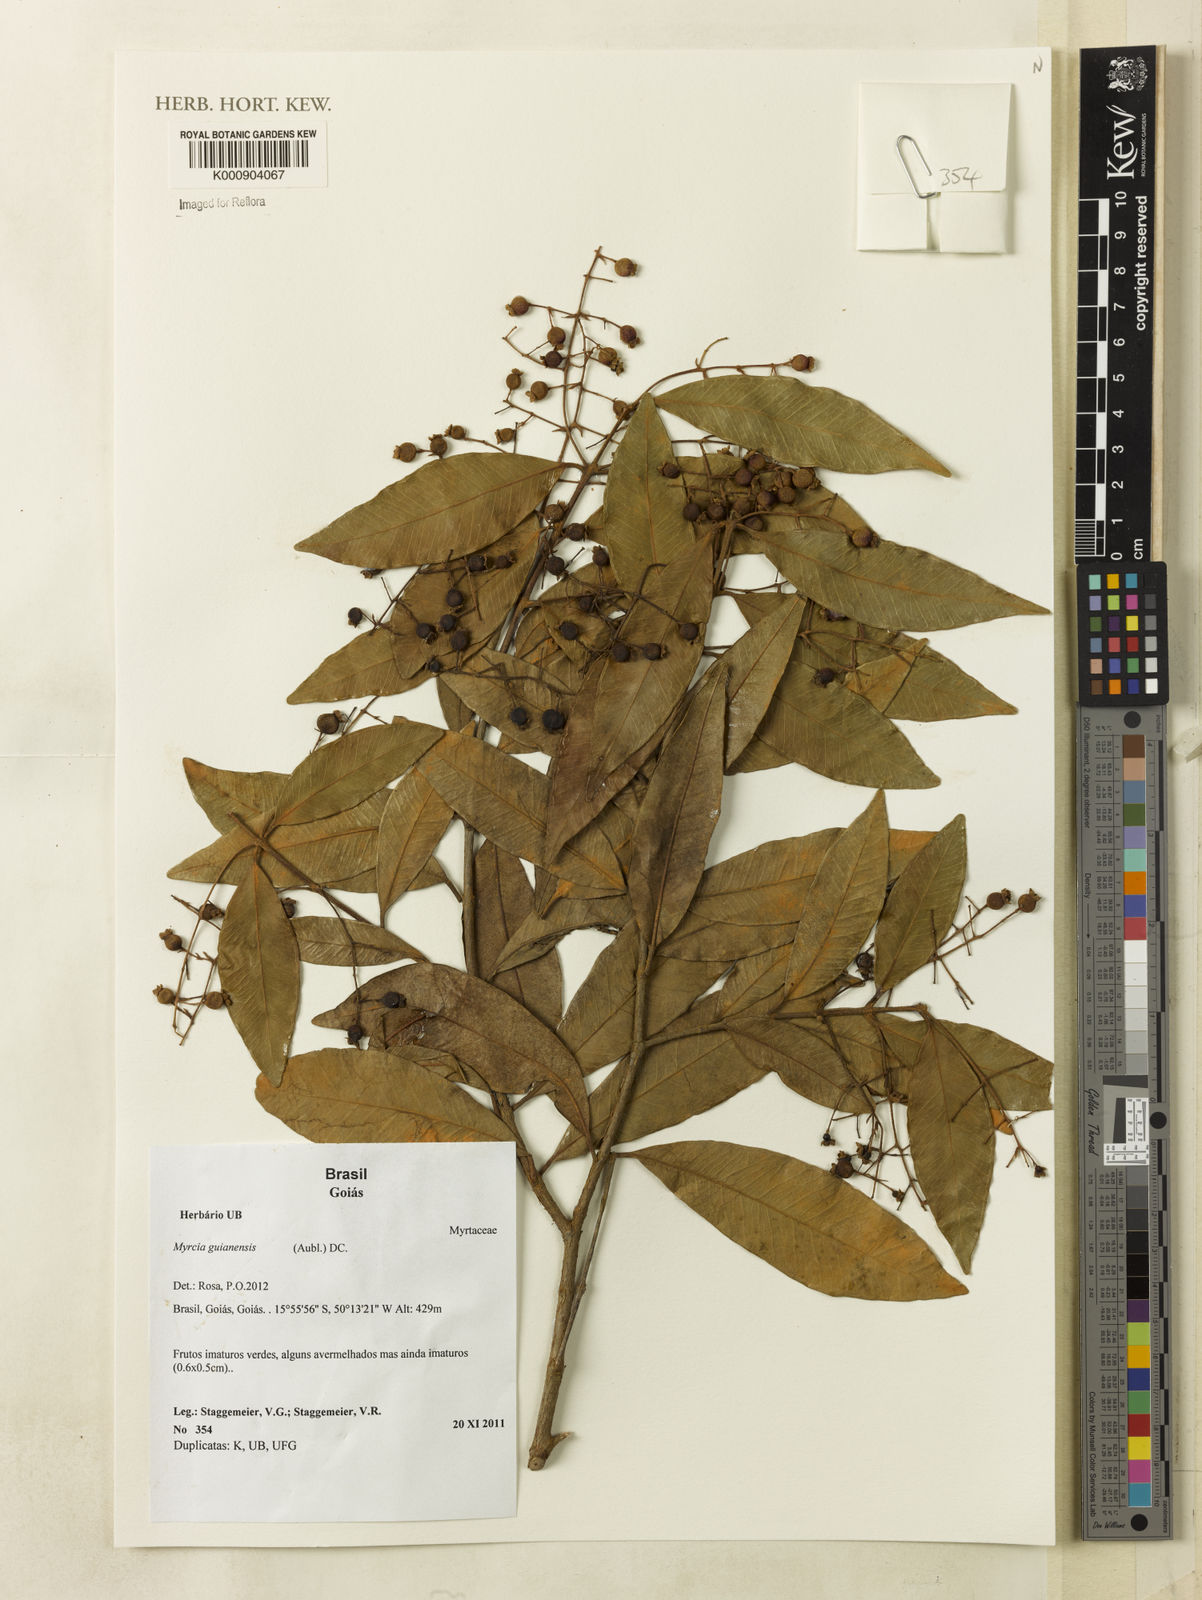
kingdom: Plantae
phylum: Tracheophyta
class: Magnoliopsida
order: Myrtales
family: Myrtaceae
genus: Myrcia
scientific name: Myrcia guianensis
